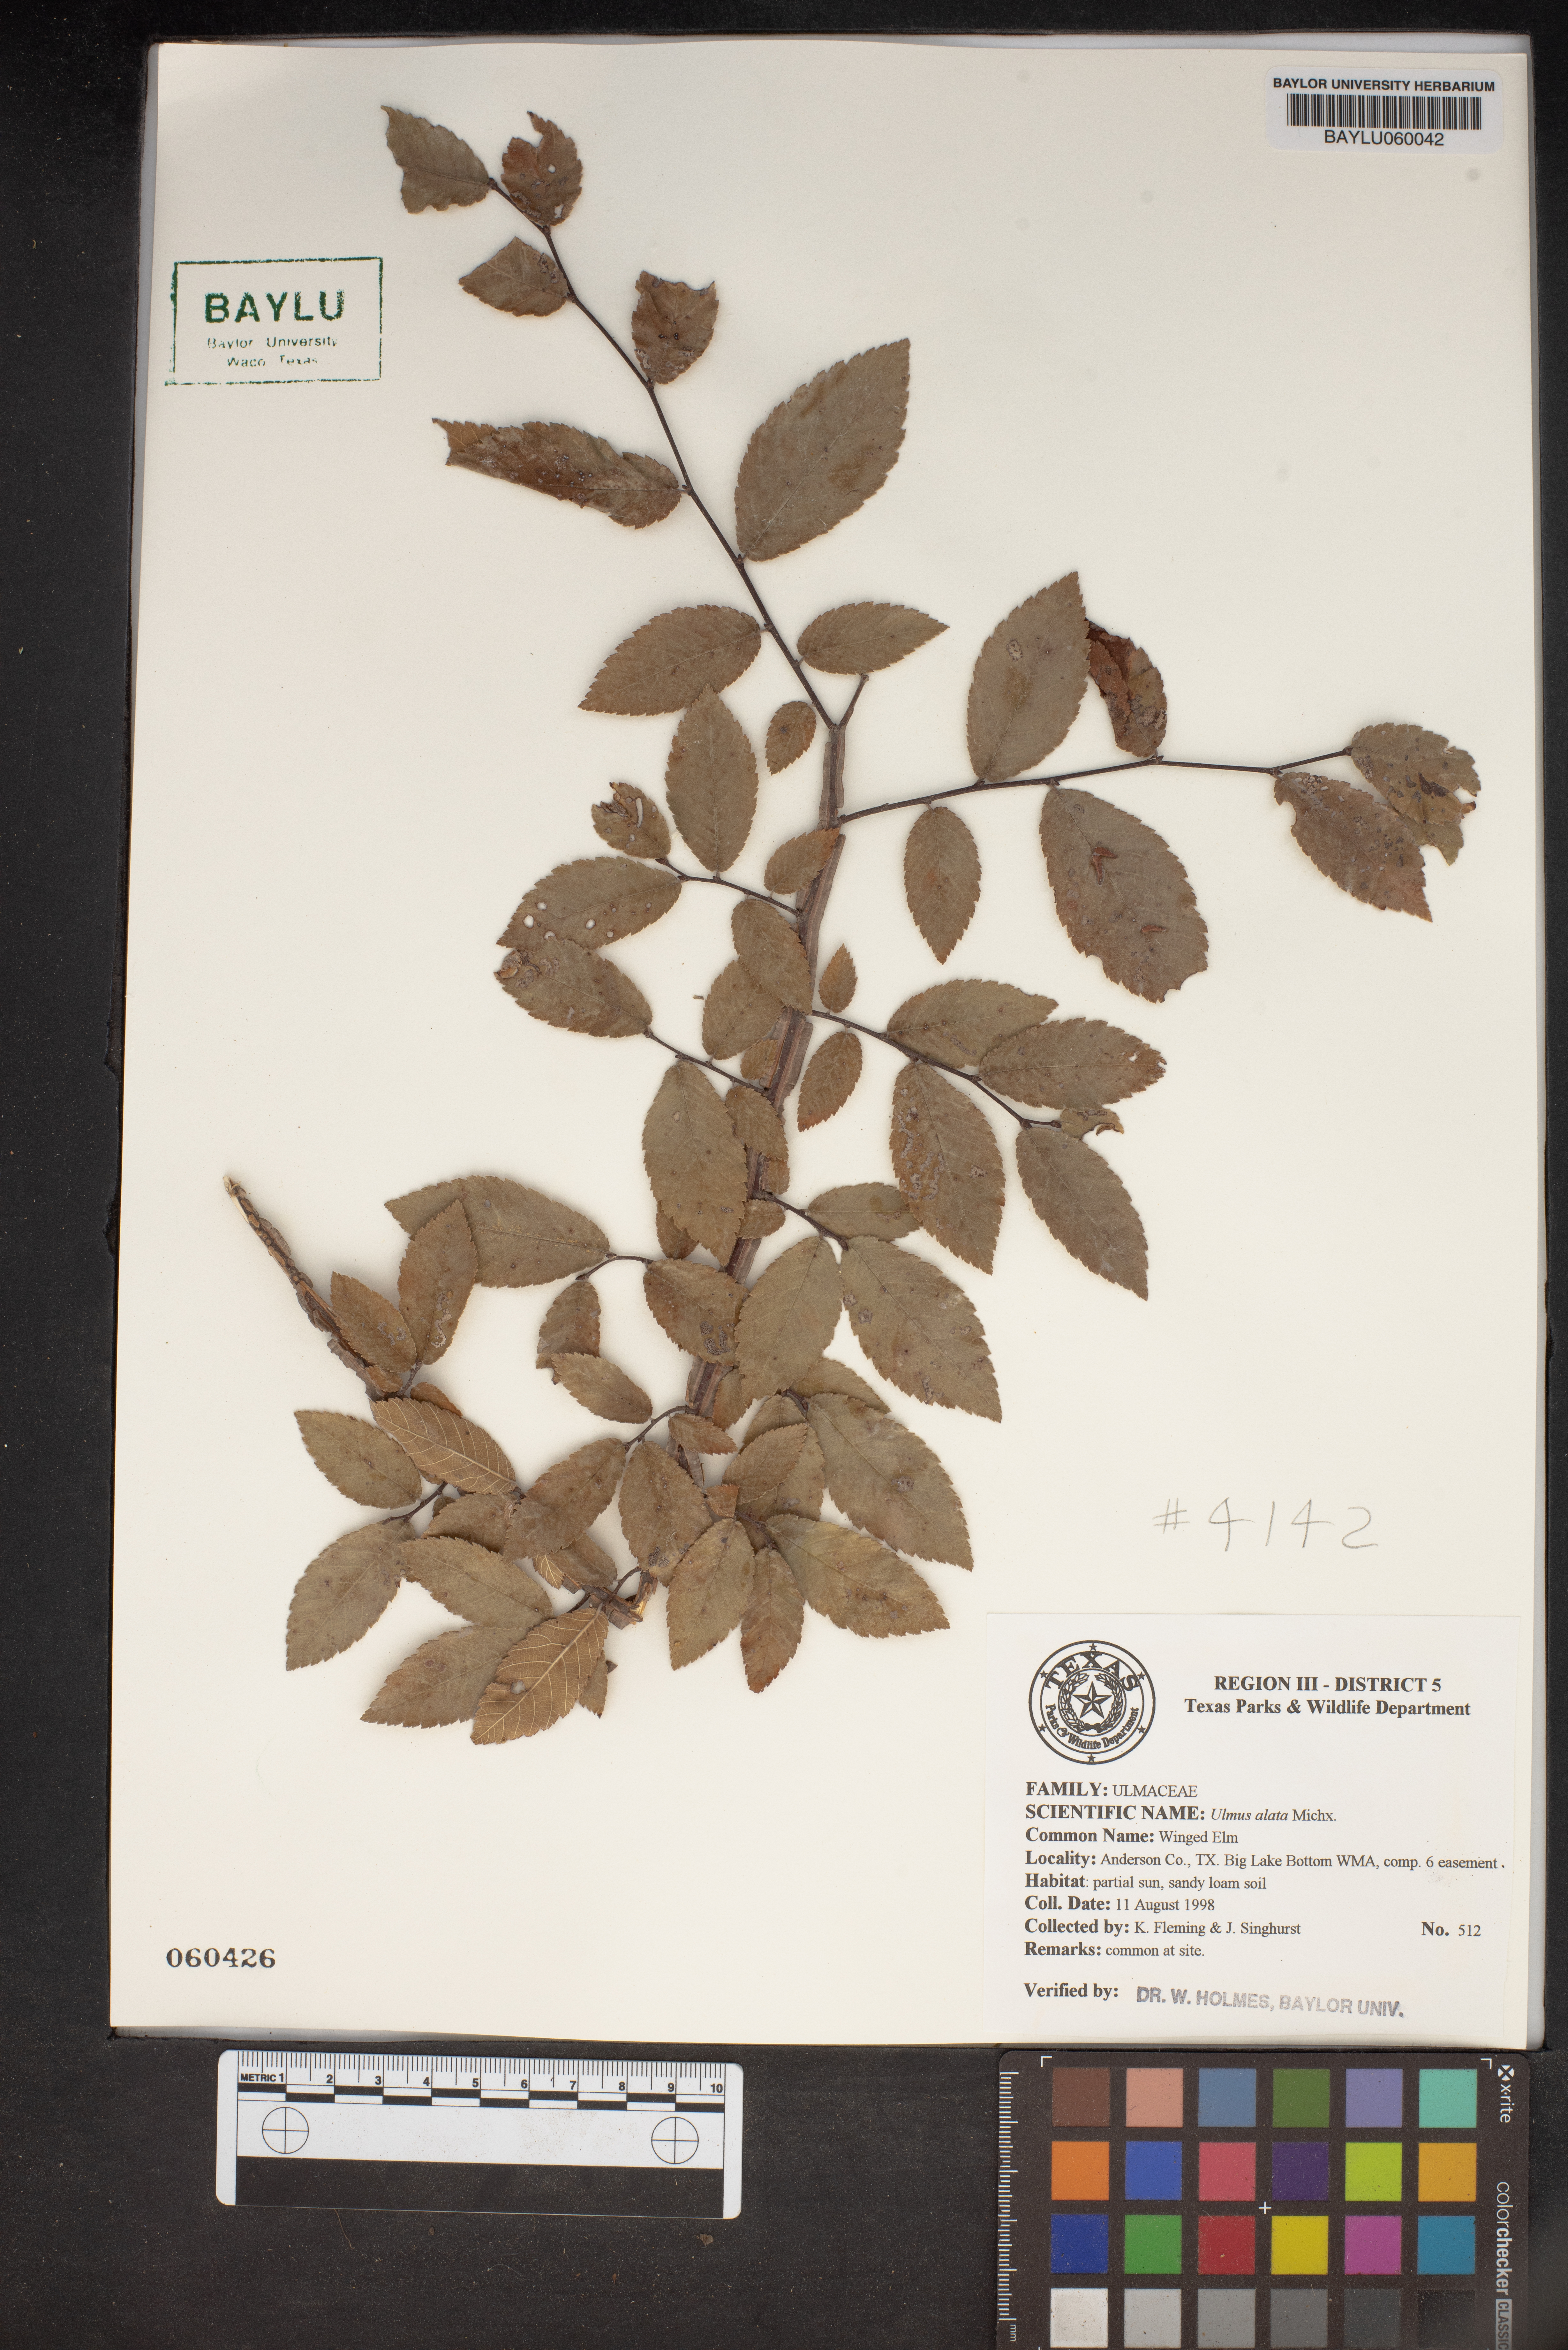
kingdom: Plantae
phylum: Tracheophyta
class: Magnoliopsida
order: Rosales
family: Ulmaceae
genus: Ulmus
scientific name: Ulmus alata
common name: Winged elm
